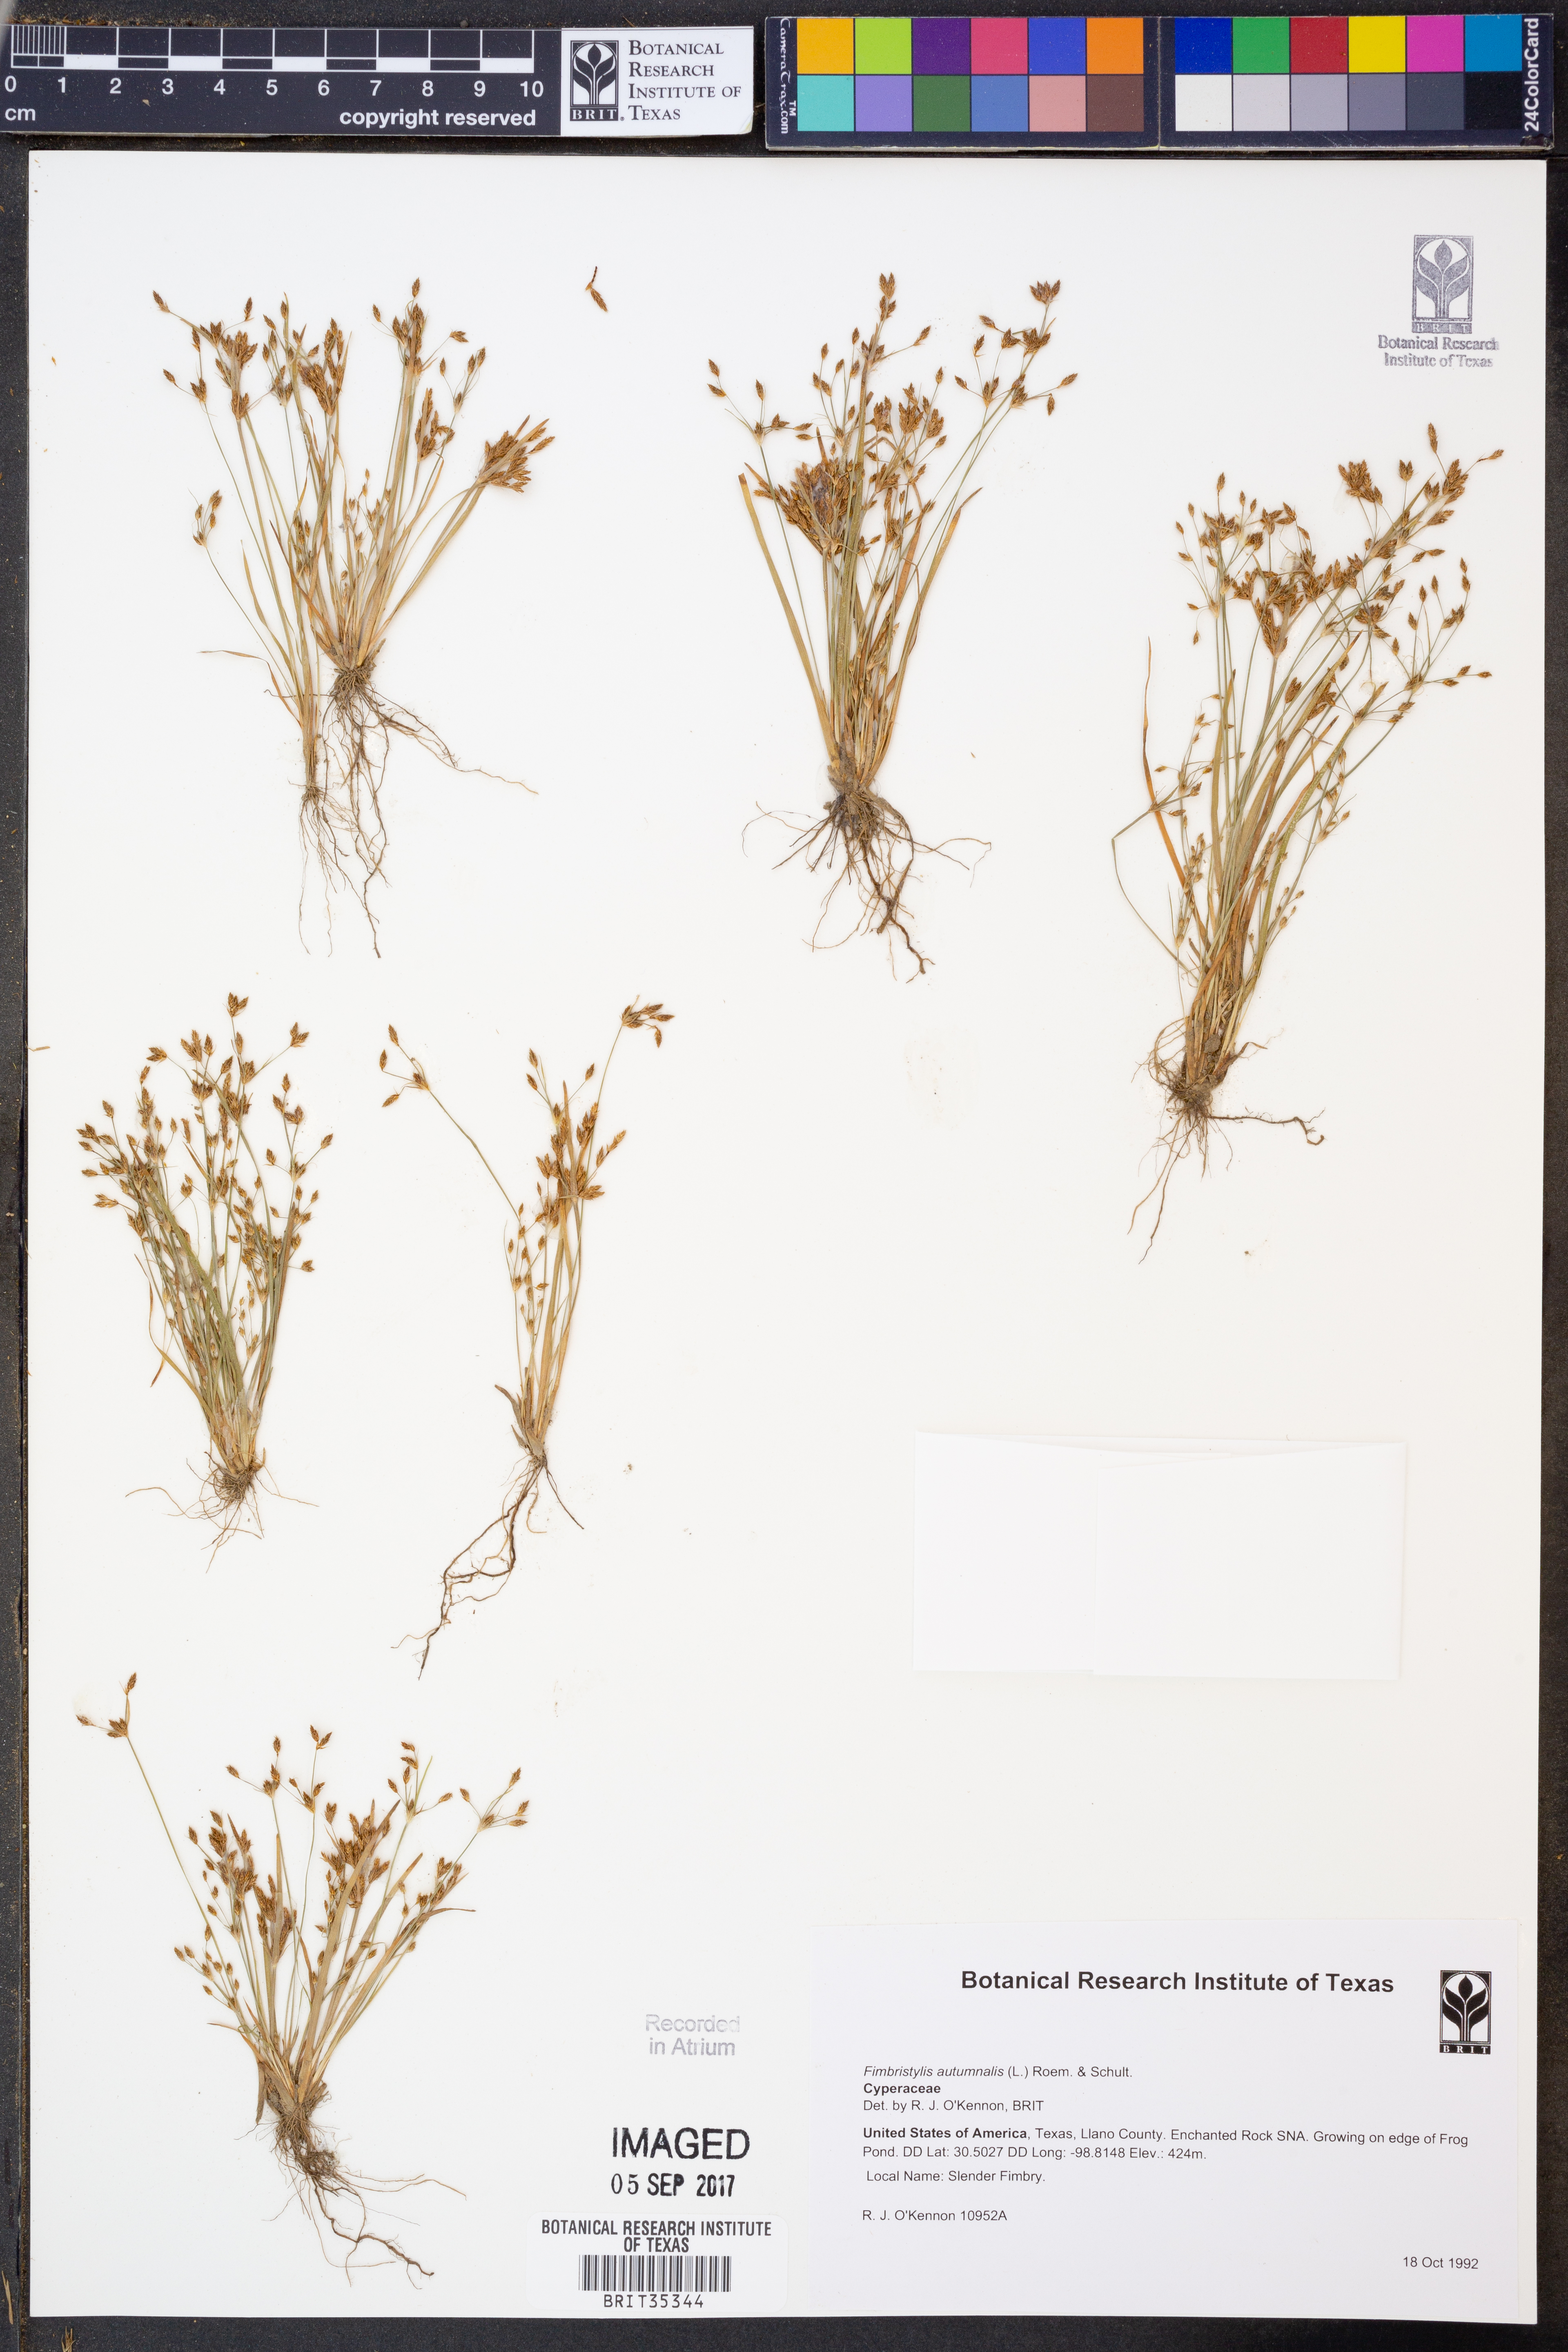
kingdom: Plantae
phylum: Tracheophyta
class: Liliopsida
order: Poales
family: Cyperaceae
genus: Fimbristylis
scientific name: Fimbristylis autumnalis
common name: Slender fimbristylis
